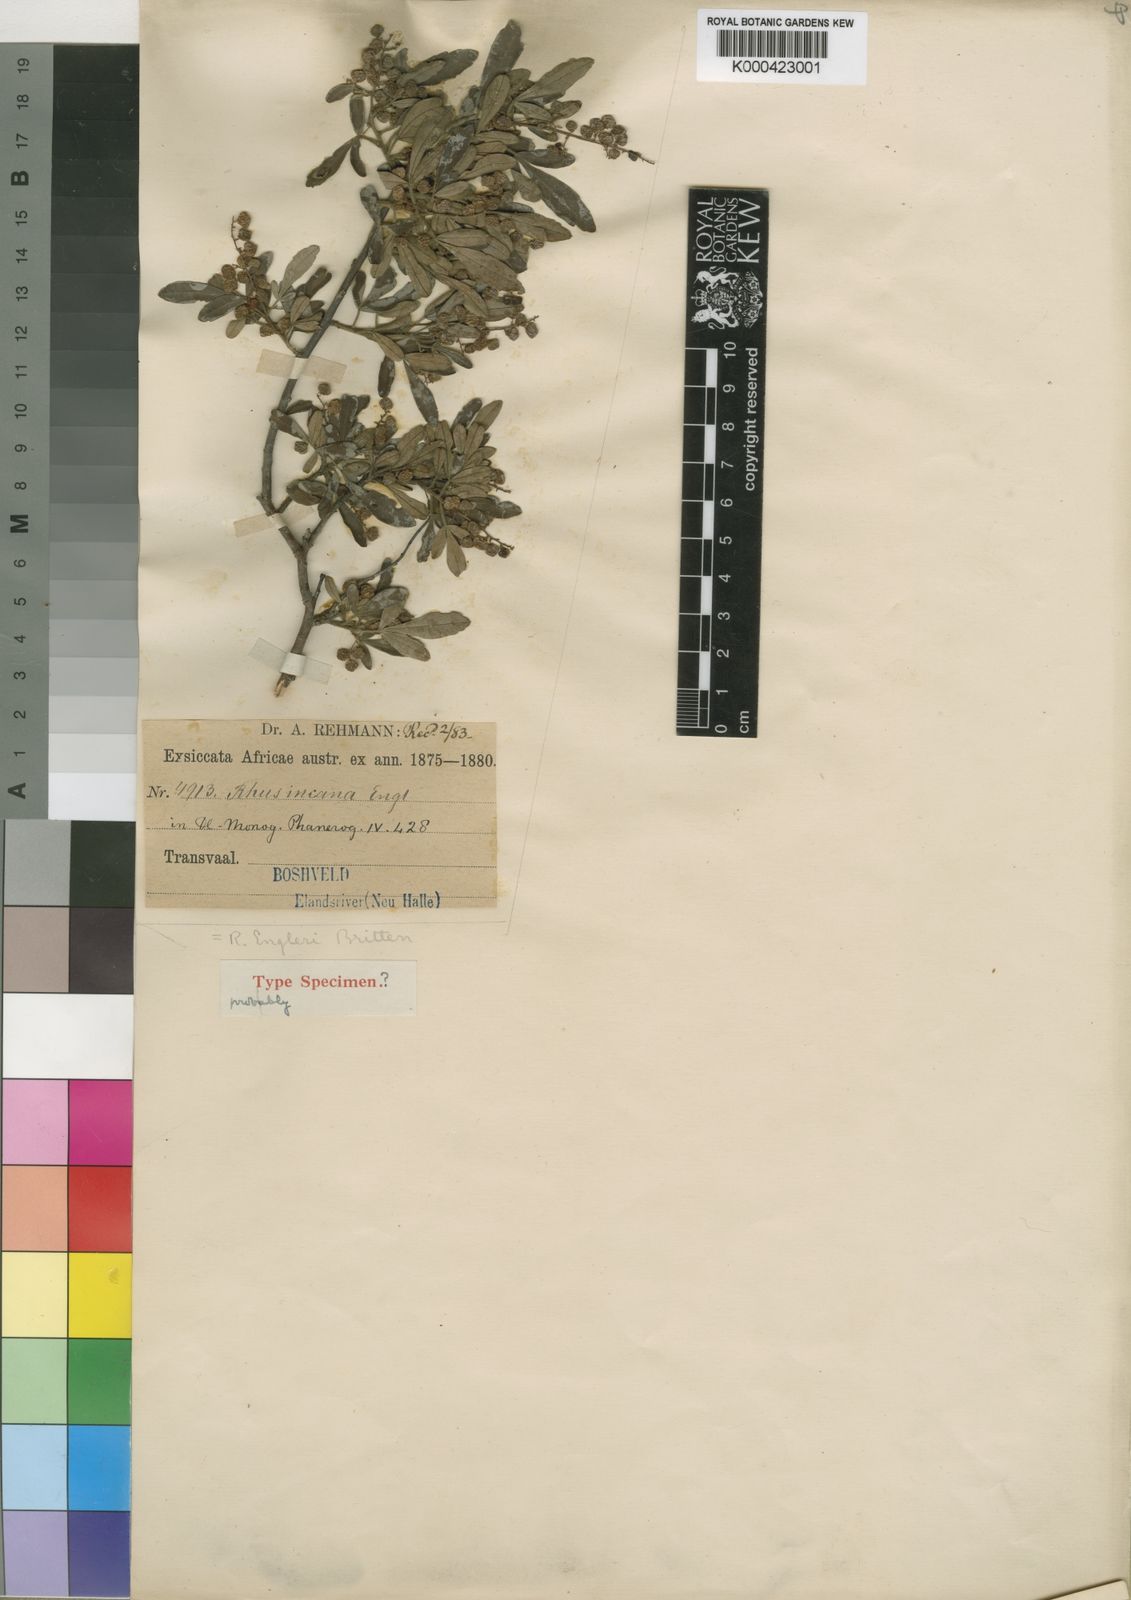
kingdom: Plantae
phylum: Tracheophyta
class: Magnoliopsida
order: Sapindales
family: Anacardiaceae
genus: Searsia
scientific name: Searsia engleri
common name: Velvet karee
